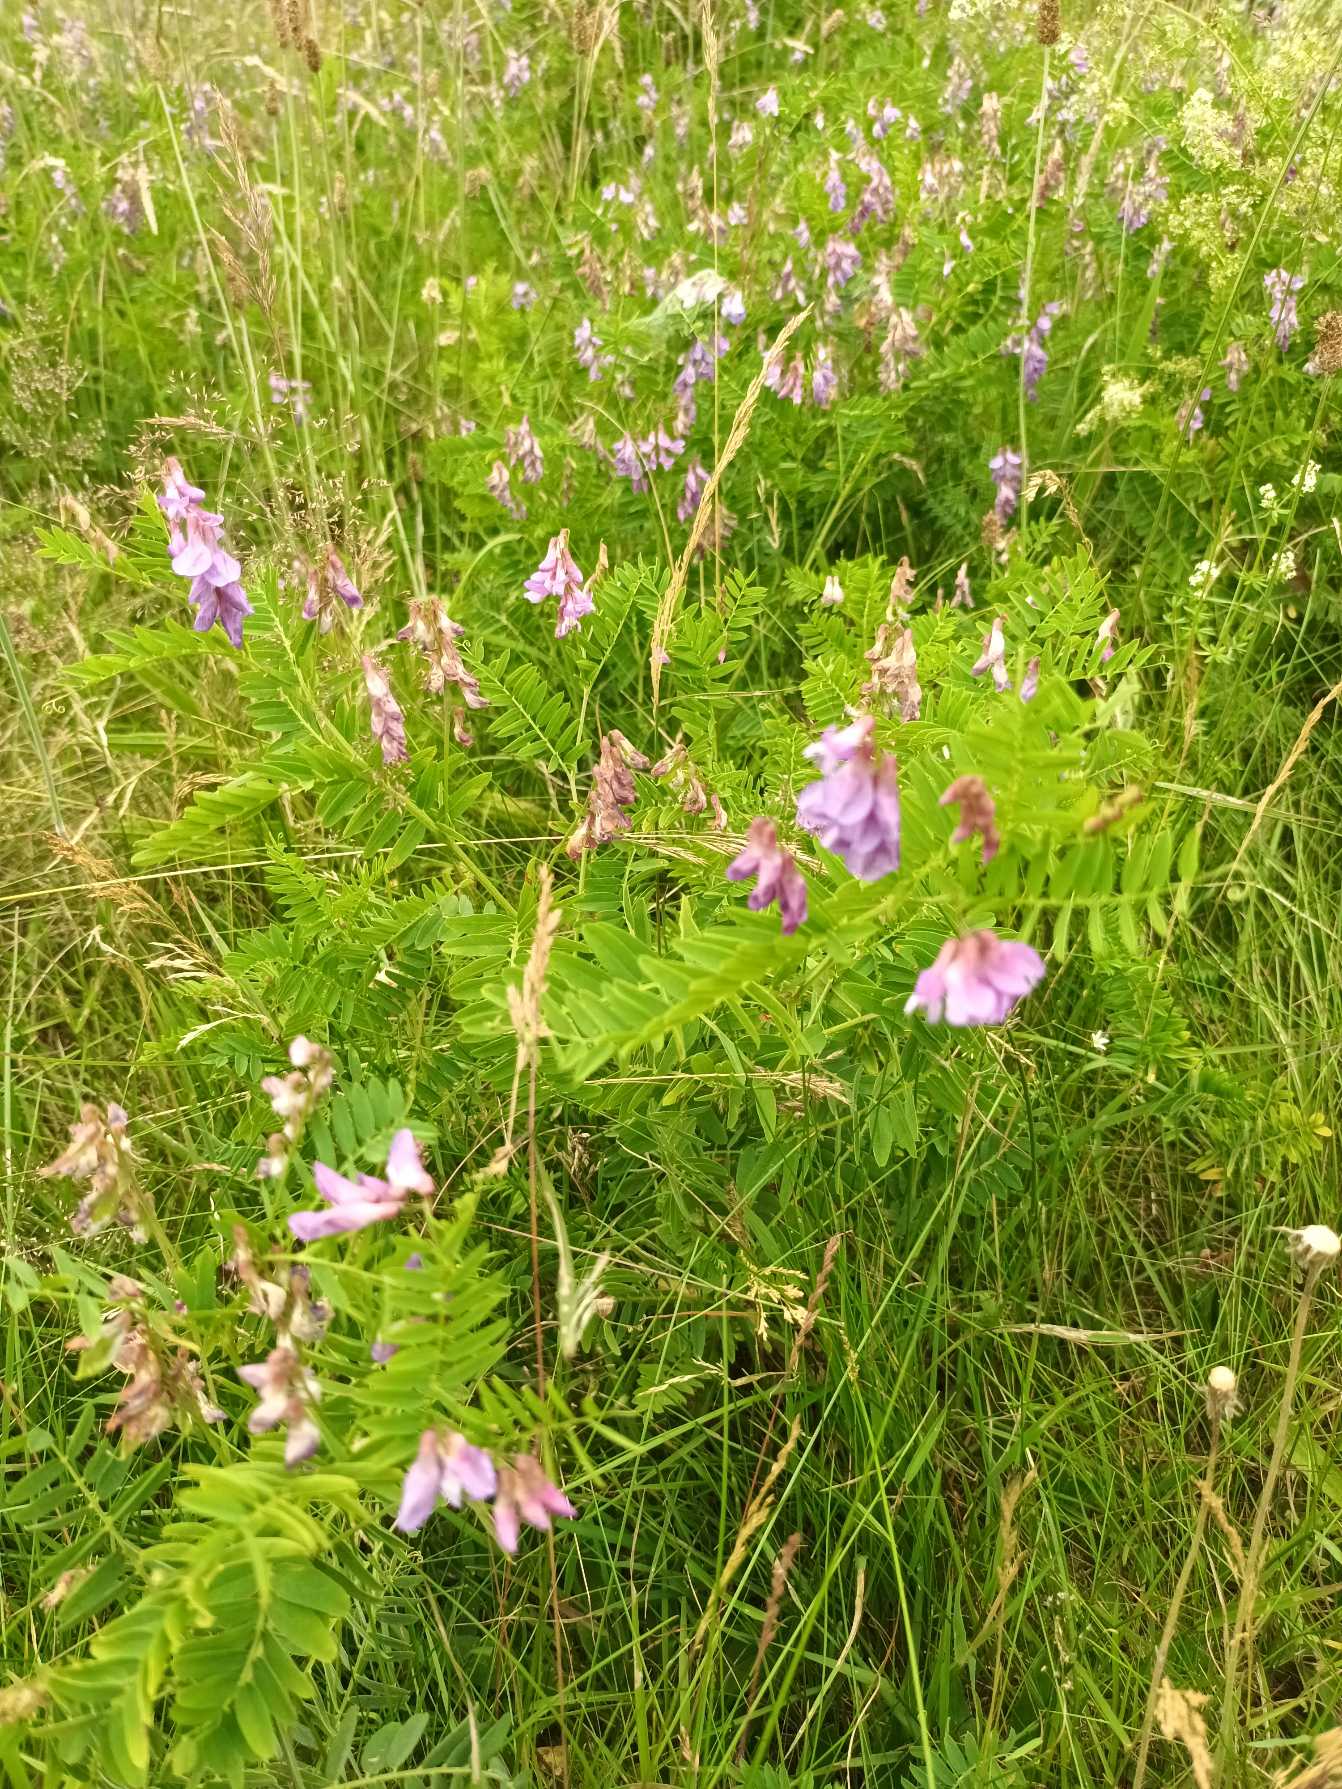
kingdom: Plantae
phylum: Tracheophyta
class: Magnoliopsida
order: Fabales
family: Fabaceae
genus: Vicia
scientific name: Vicia cassubica
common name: Kassubisk vikke
